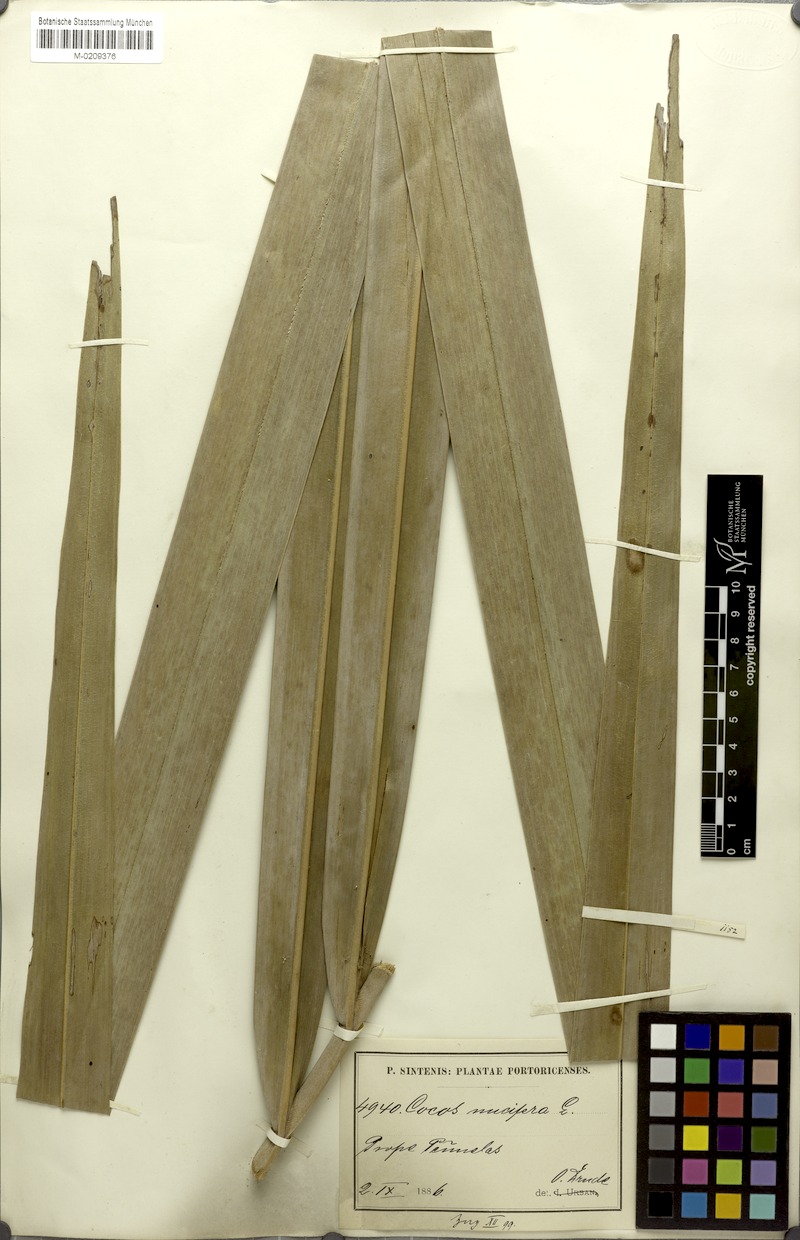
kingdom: Plantae
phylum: Tracheophyta
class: Liliopsida
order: Arecales
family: Arecaceae
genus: Cocos
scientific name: Cocos nucifera
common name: Coconut palm
